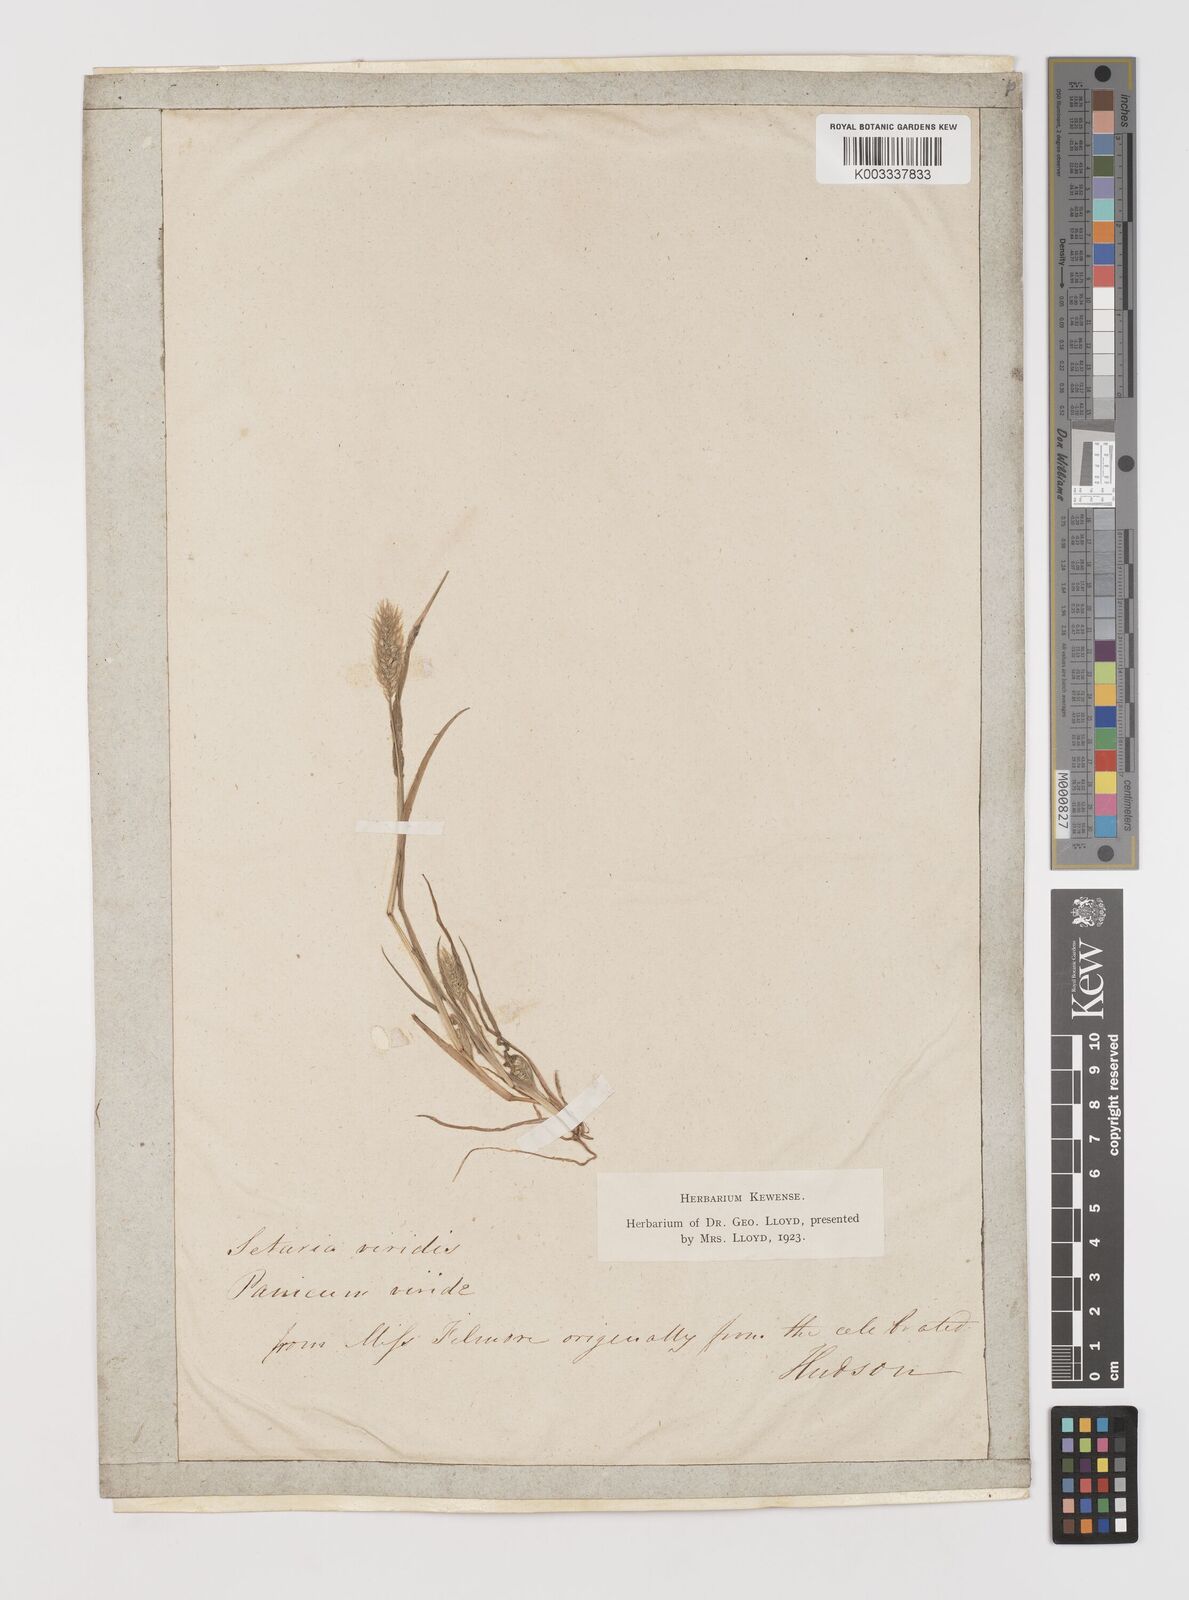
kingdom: Plantae
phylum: Tracheophyta
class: Liliopsida
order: Poales
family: Poaceae
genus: Setaria
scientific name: Setaria viridis
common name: Green bristlegrass
